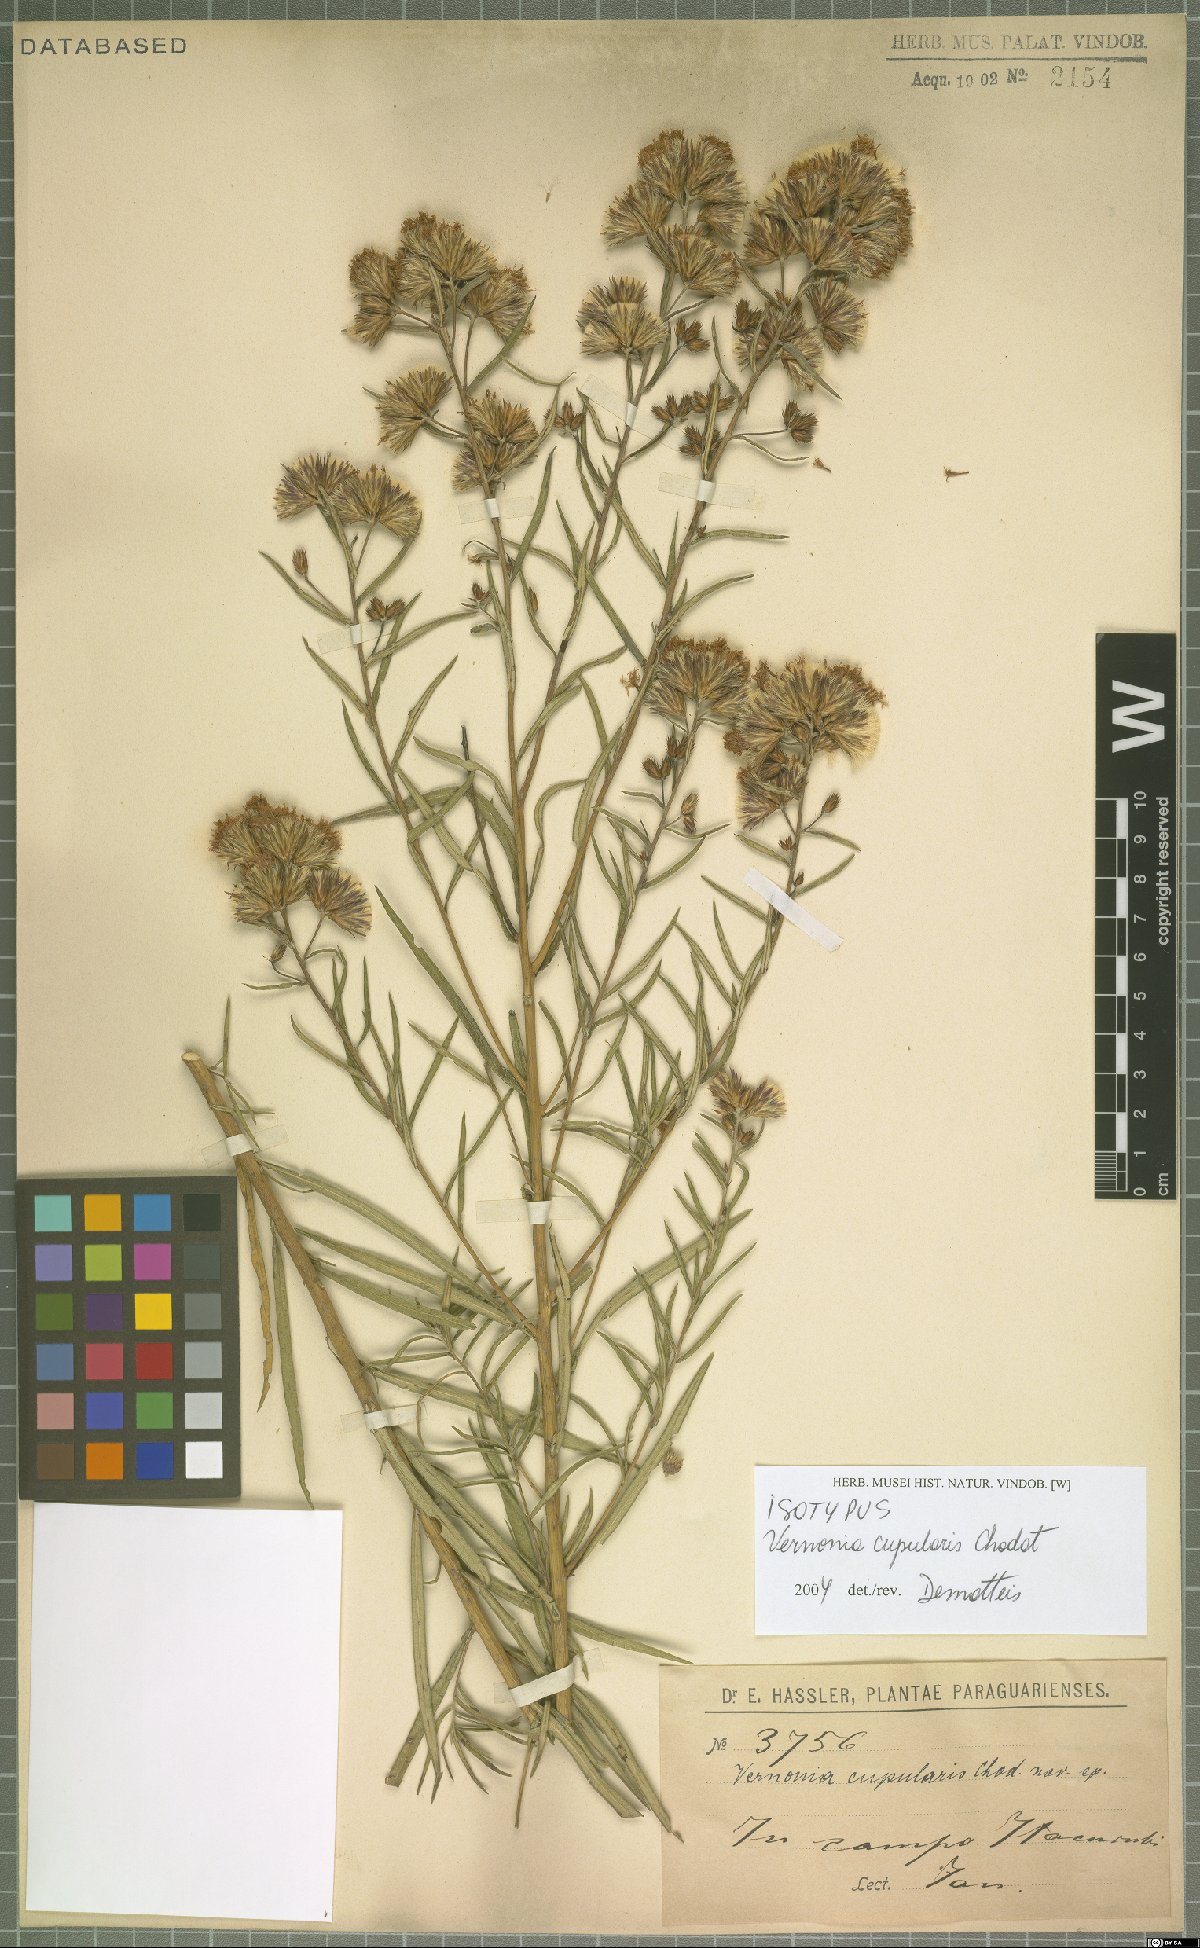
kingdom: Plantae
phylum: Tracheophyta
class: Magnoliopsida
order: Asterales
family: Asteraceae
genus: Vernonanthura
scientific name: Vernonanthura cupularis
